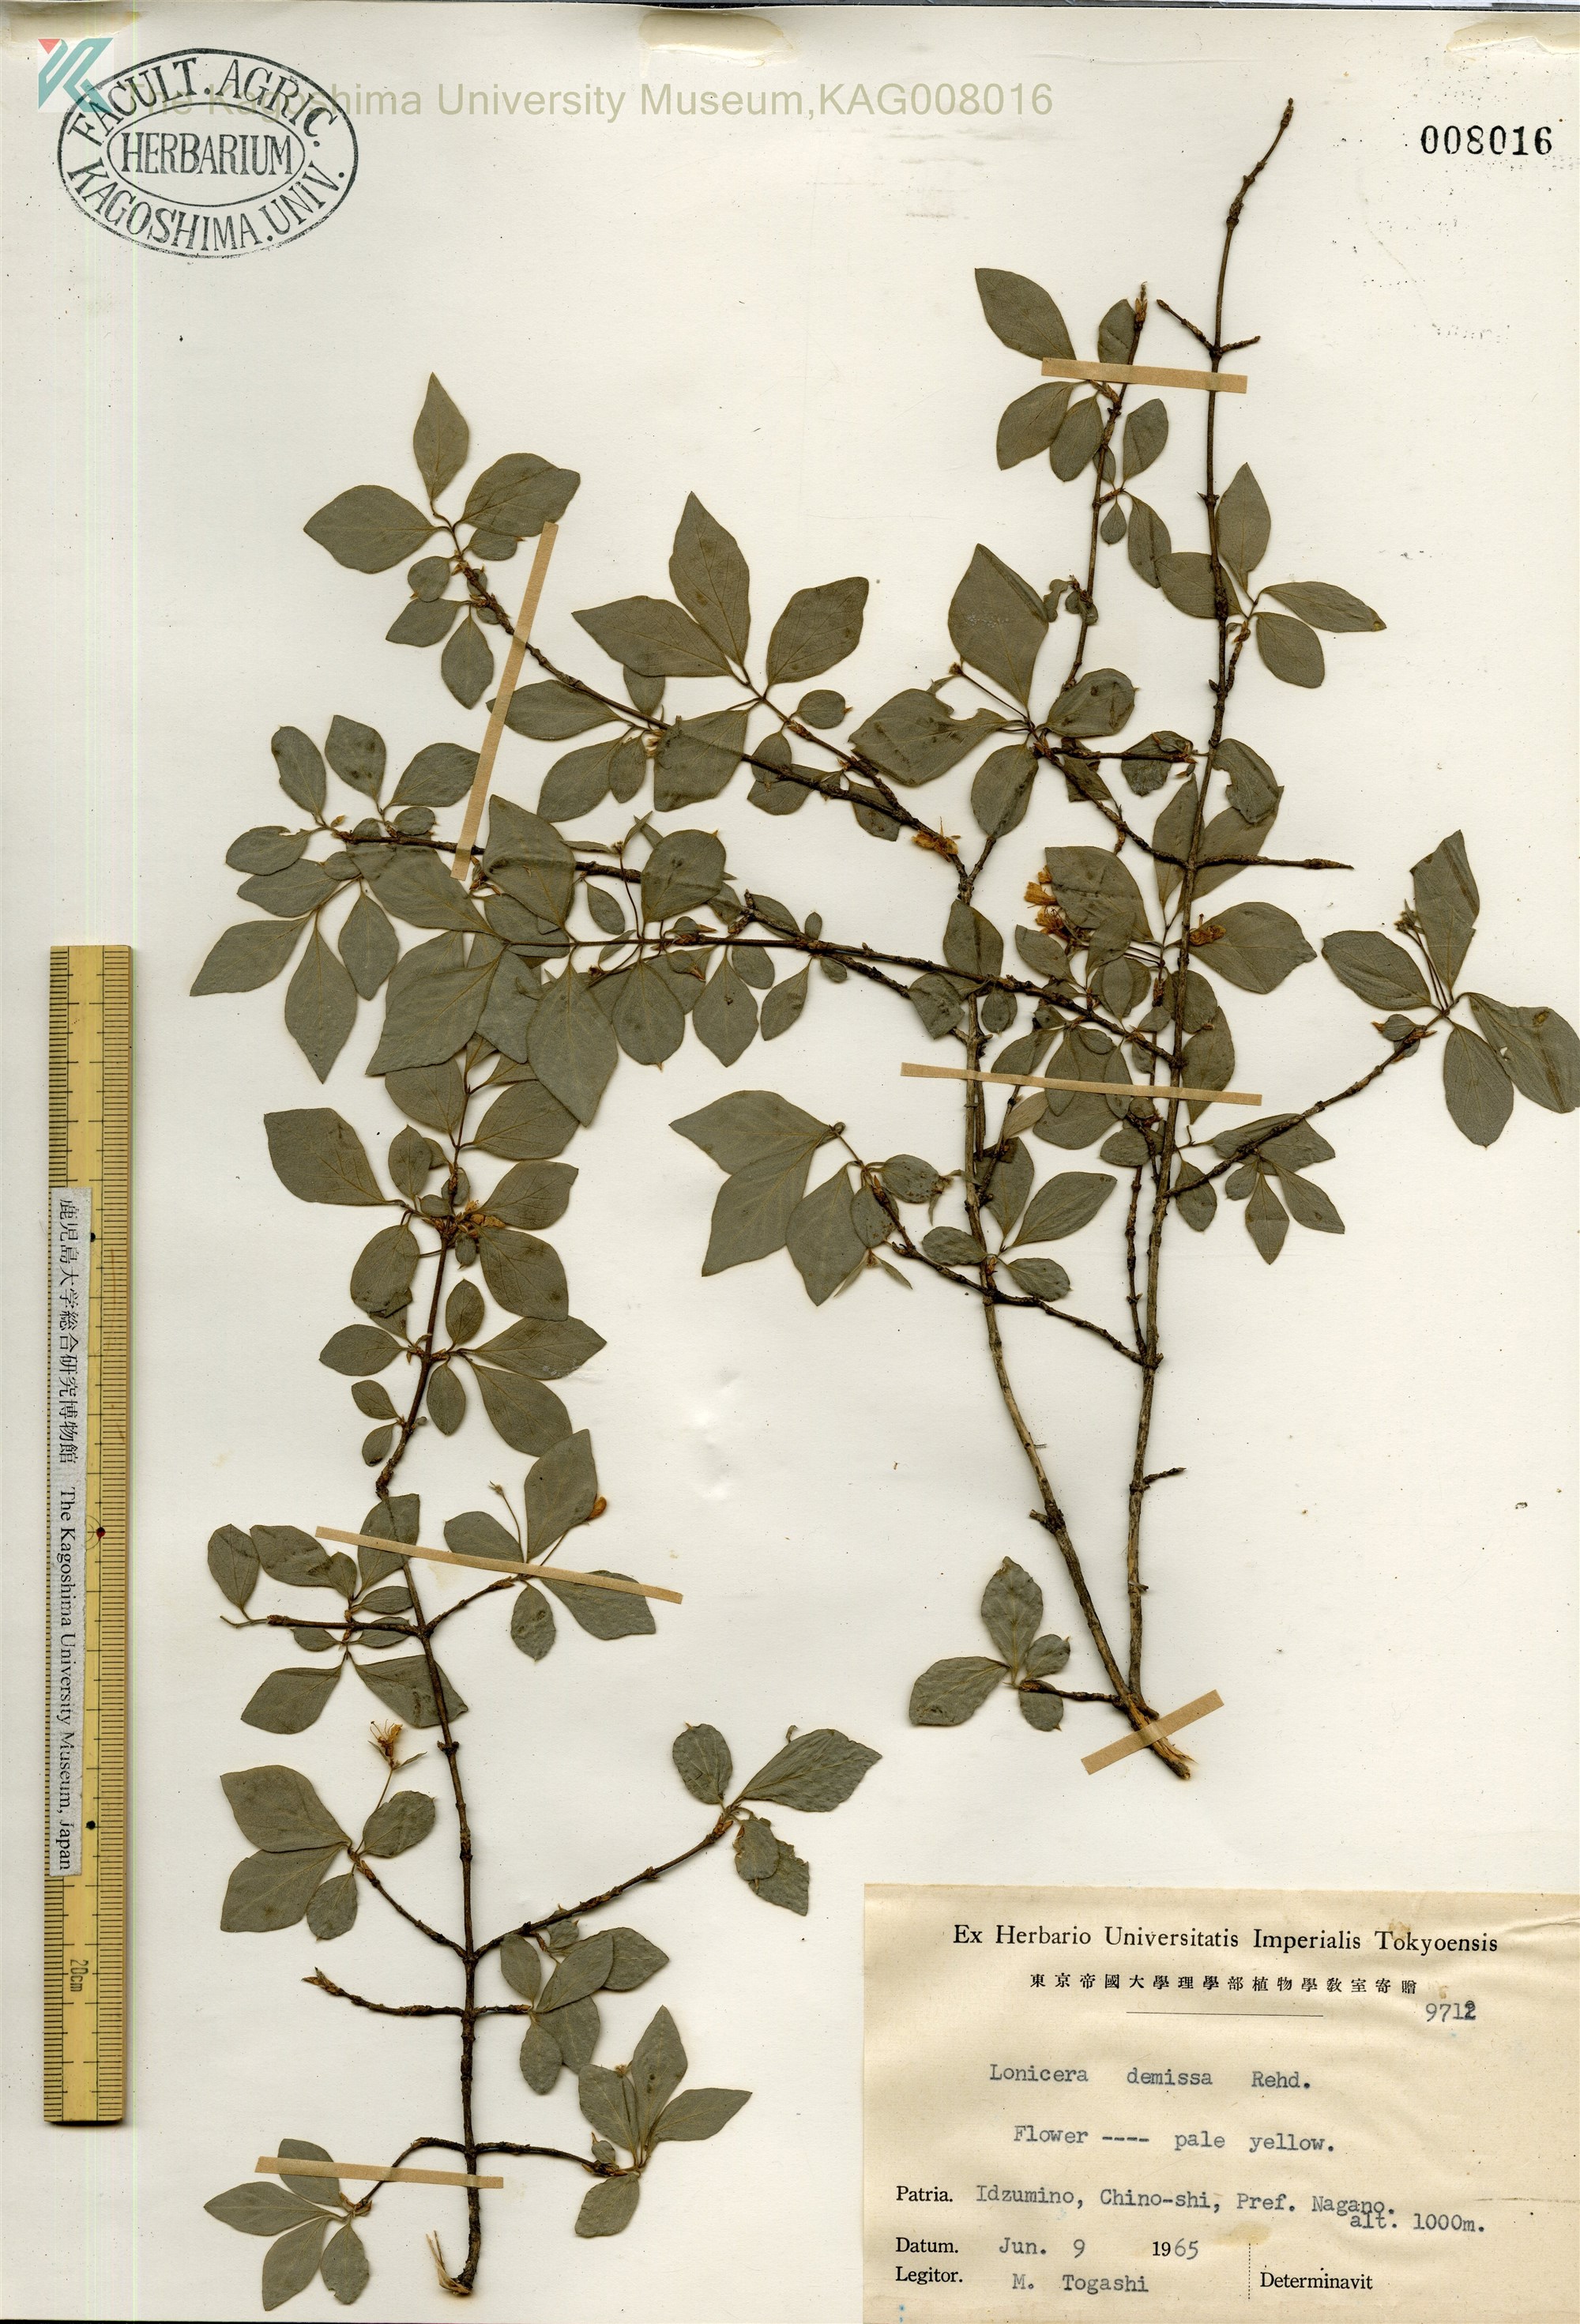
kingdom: Plantae
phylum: Tracheophyta
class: Magnoliopsida
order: Dipsacales
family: Caprifoliaceae
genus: Lonicera
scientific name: Lonicera demissa
